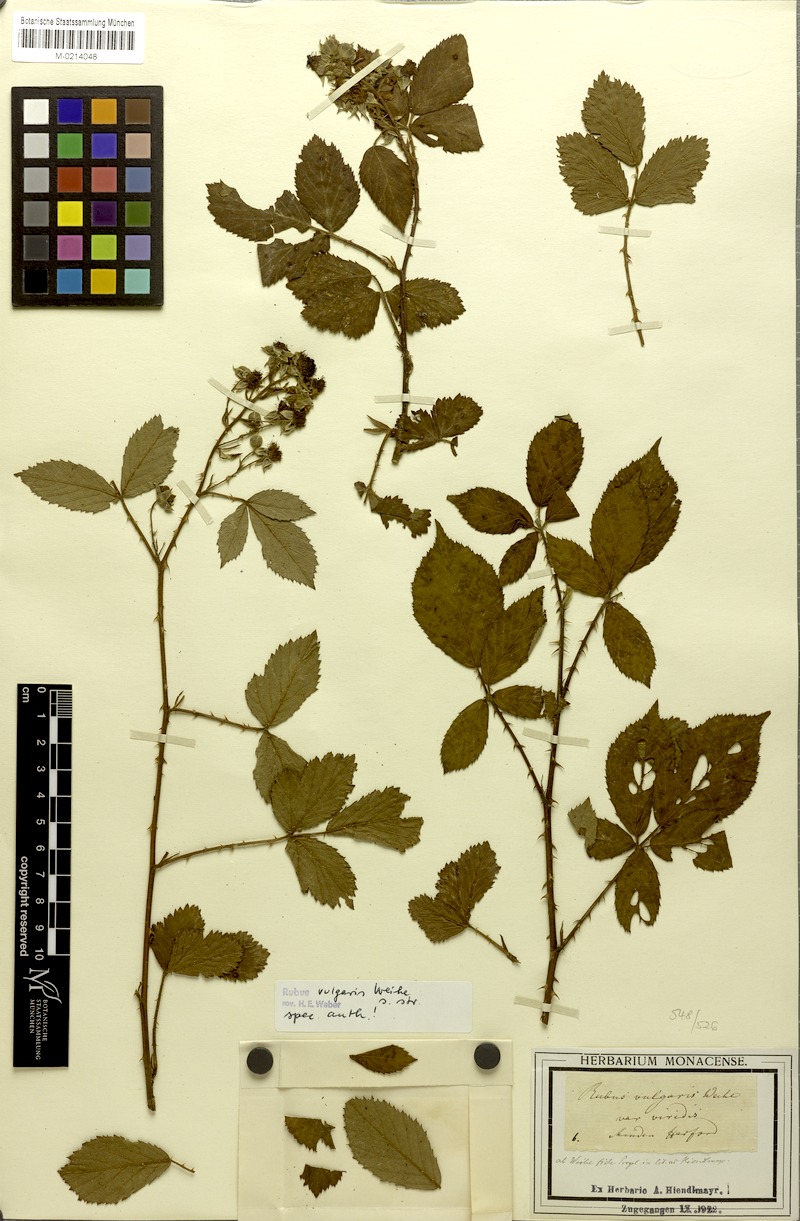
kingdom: Plantae
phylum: Tracheophyta
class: Magnoliopsida
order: Rosales
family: Rosaceae
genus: Rubus
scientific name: Rubus aschoffii
